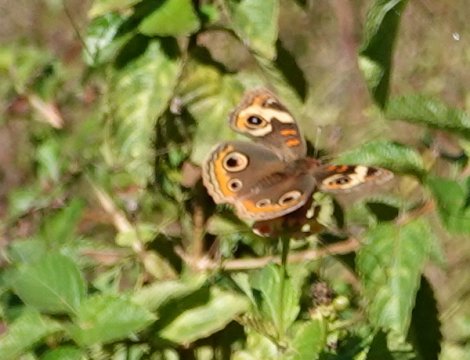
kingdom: Animalia
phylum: Arthropoda
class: Insecta
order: Lepidoptera
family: Nymphalidae
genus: Junonia
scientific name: Junonia coenia
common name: Common Buckeye
